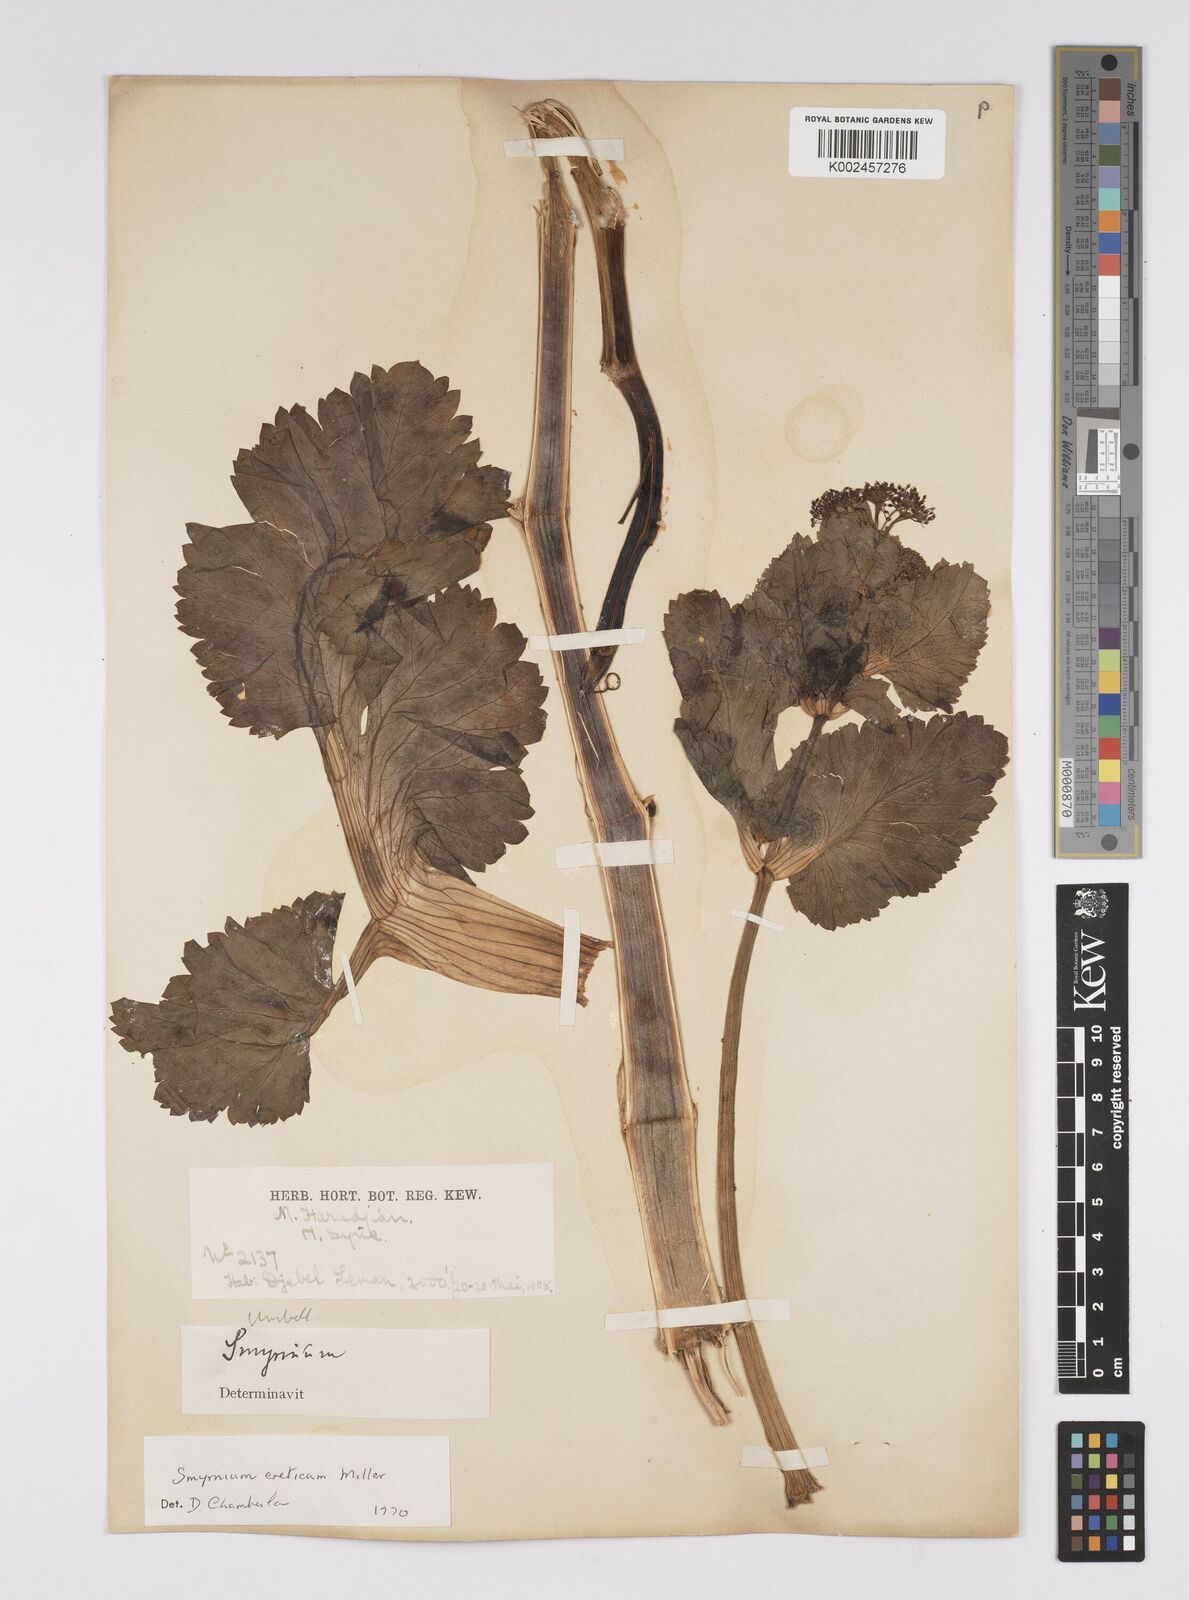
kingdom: Plantae
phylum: Tracheophyta
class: Magnoliopsida
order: Apiales
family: Apiaceae
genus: Smyrnium
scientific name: Smyrnium creticum
